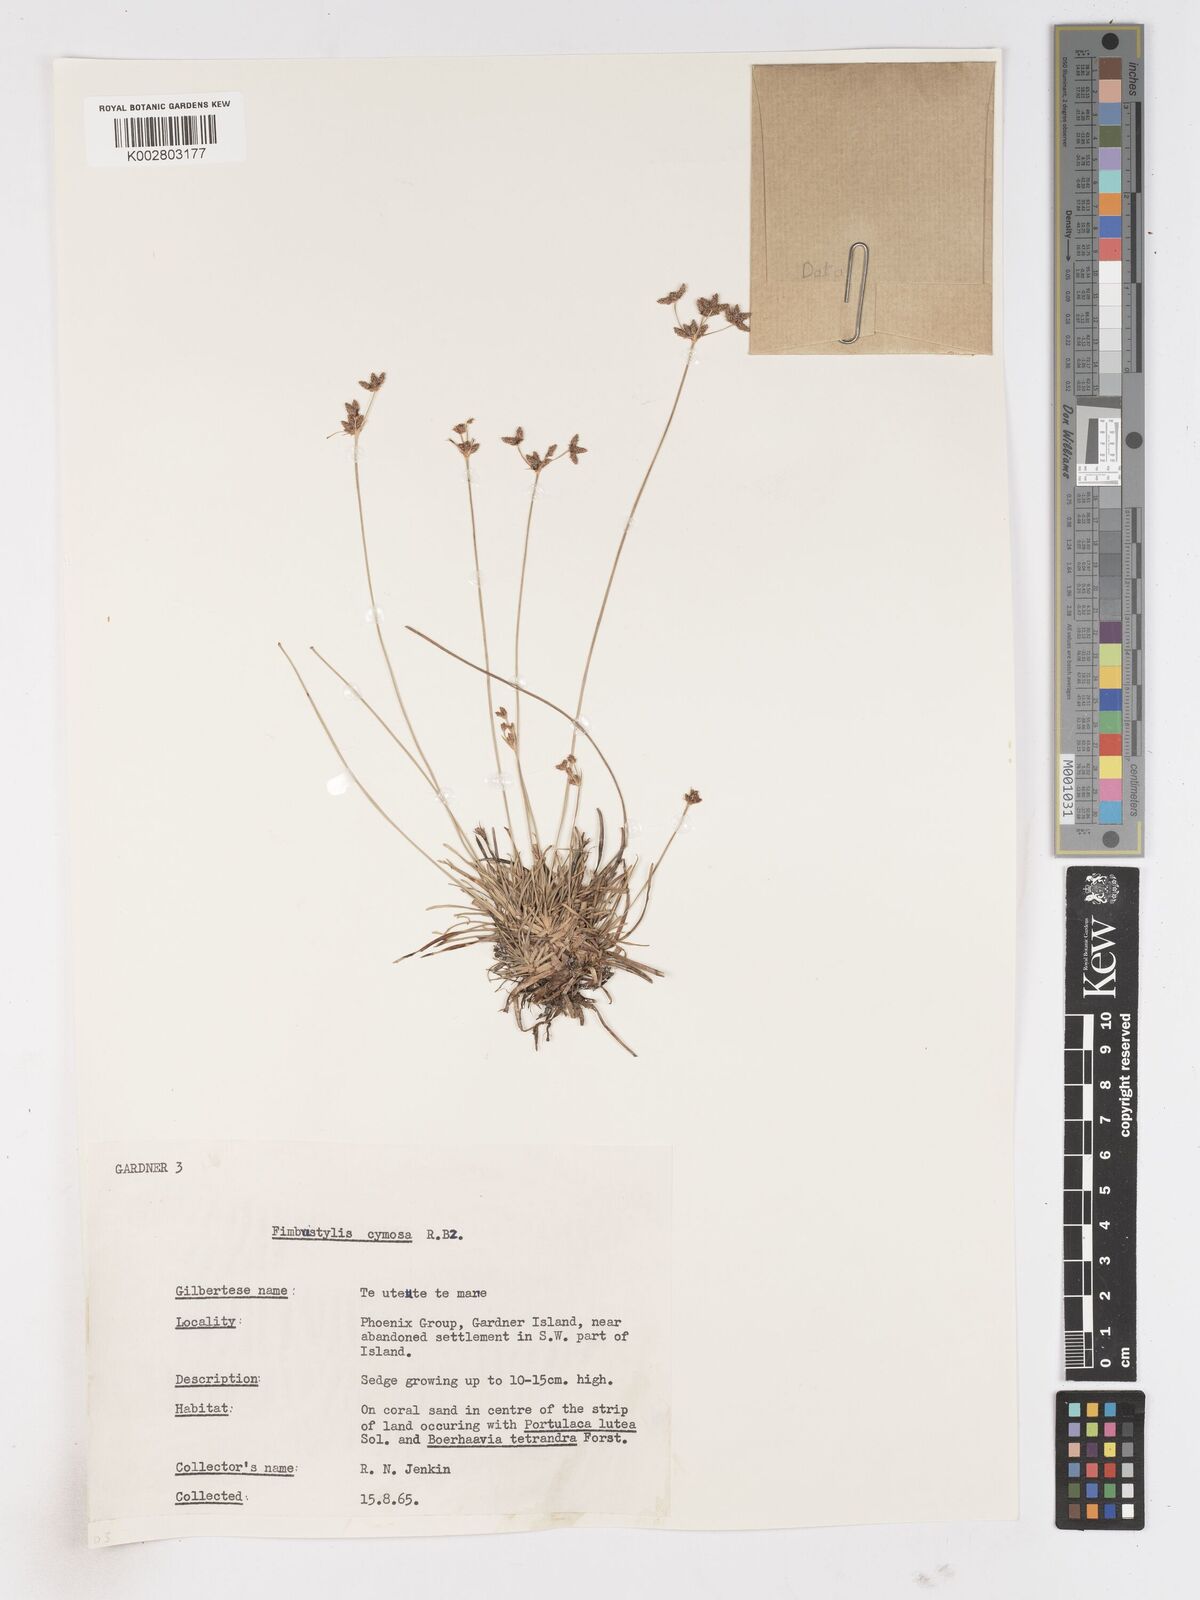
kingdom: Plantae
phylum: Tracheophyta
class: Liliopsida
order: Poales
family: Cyperaceae
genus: Fimbristylis
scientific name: Fimbristylis cymosa
